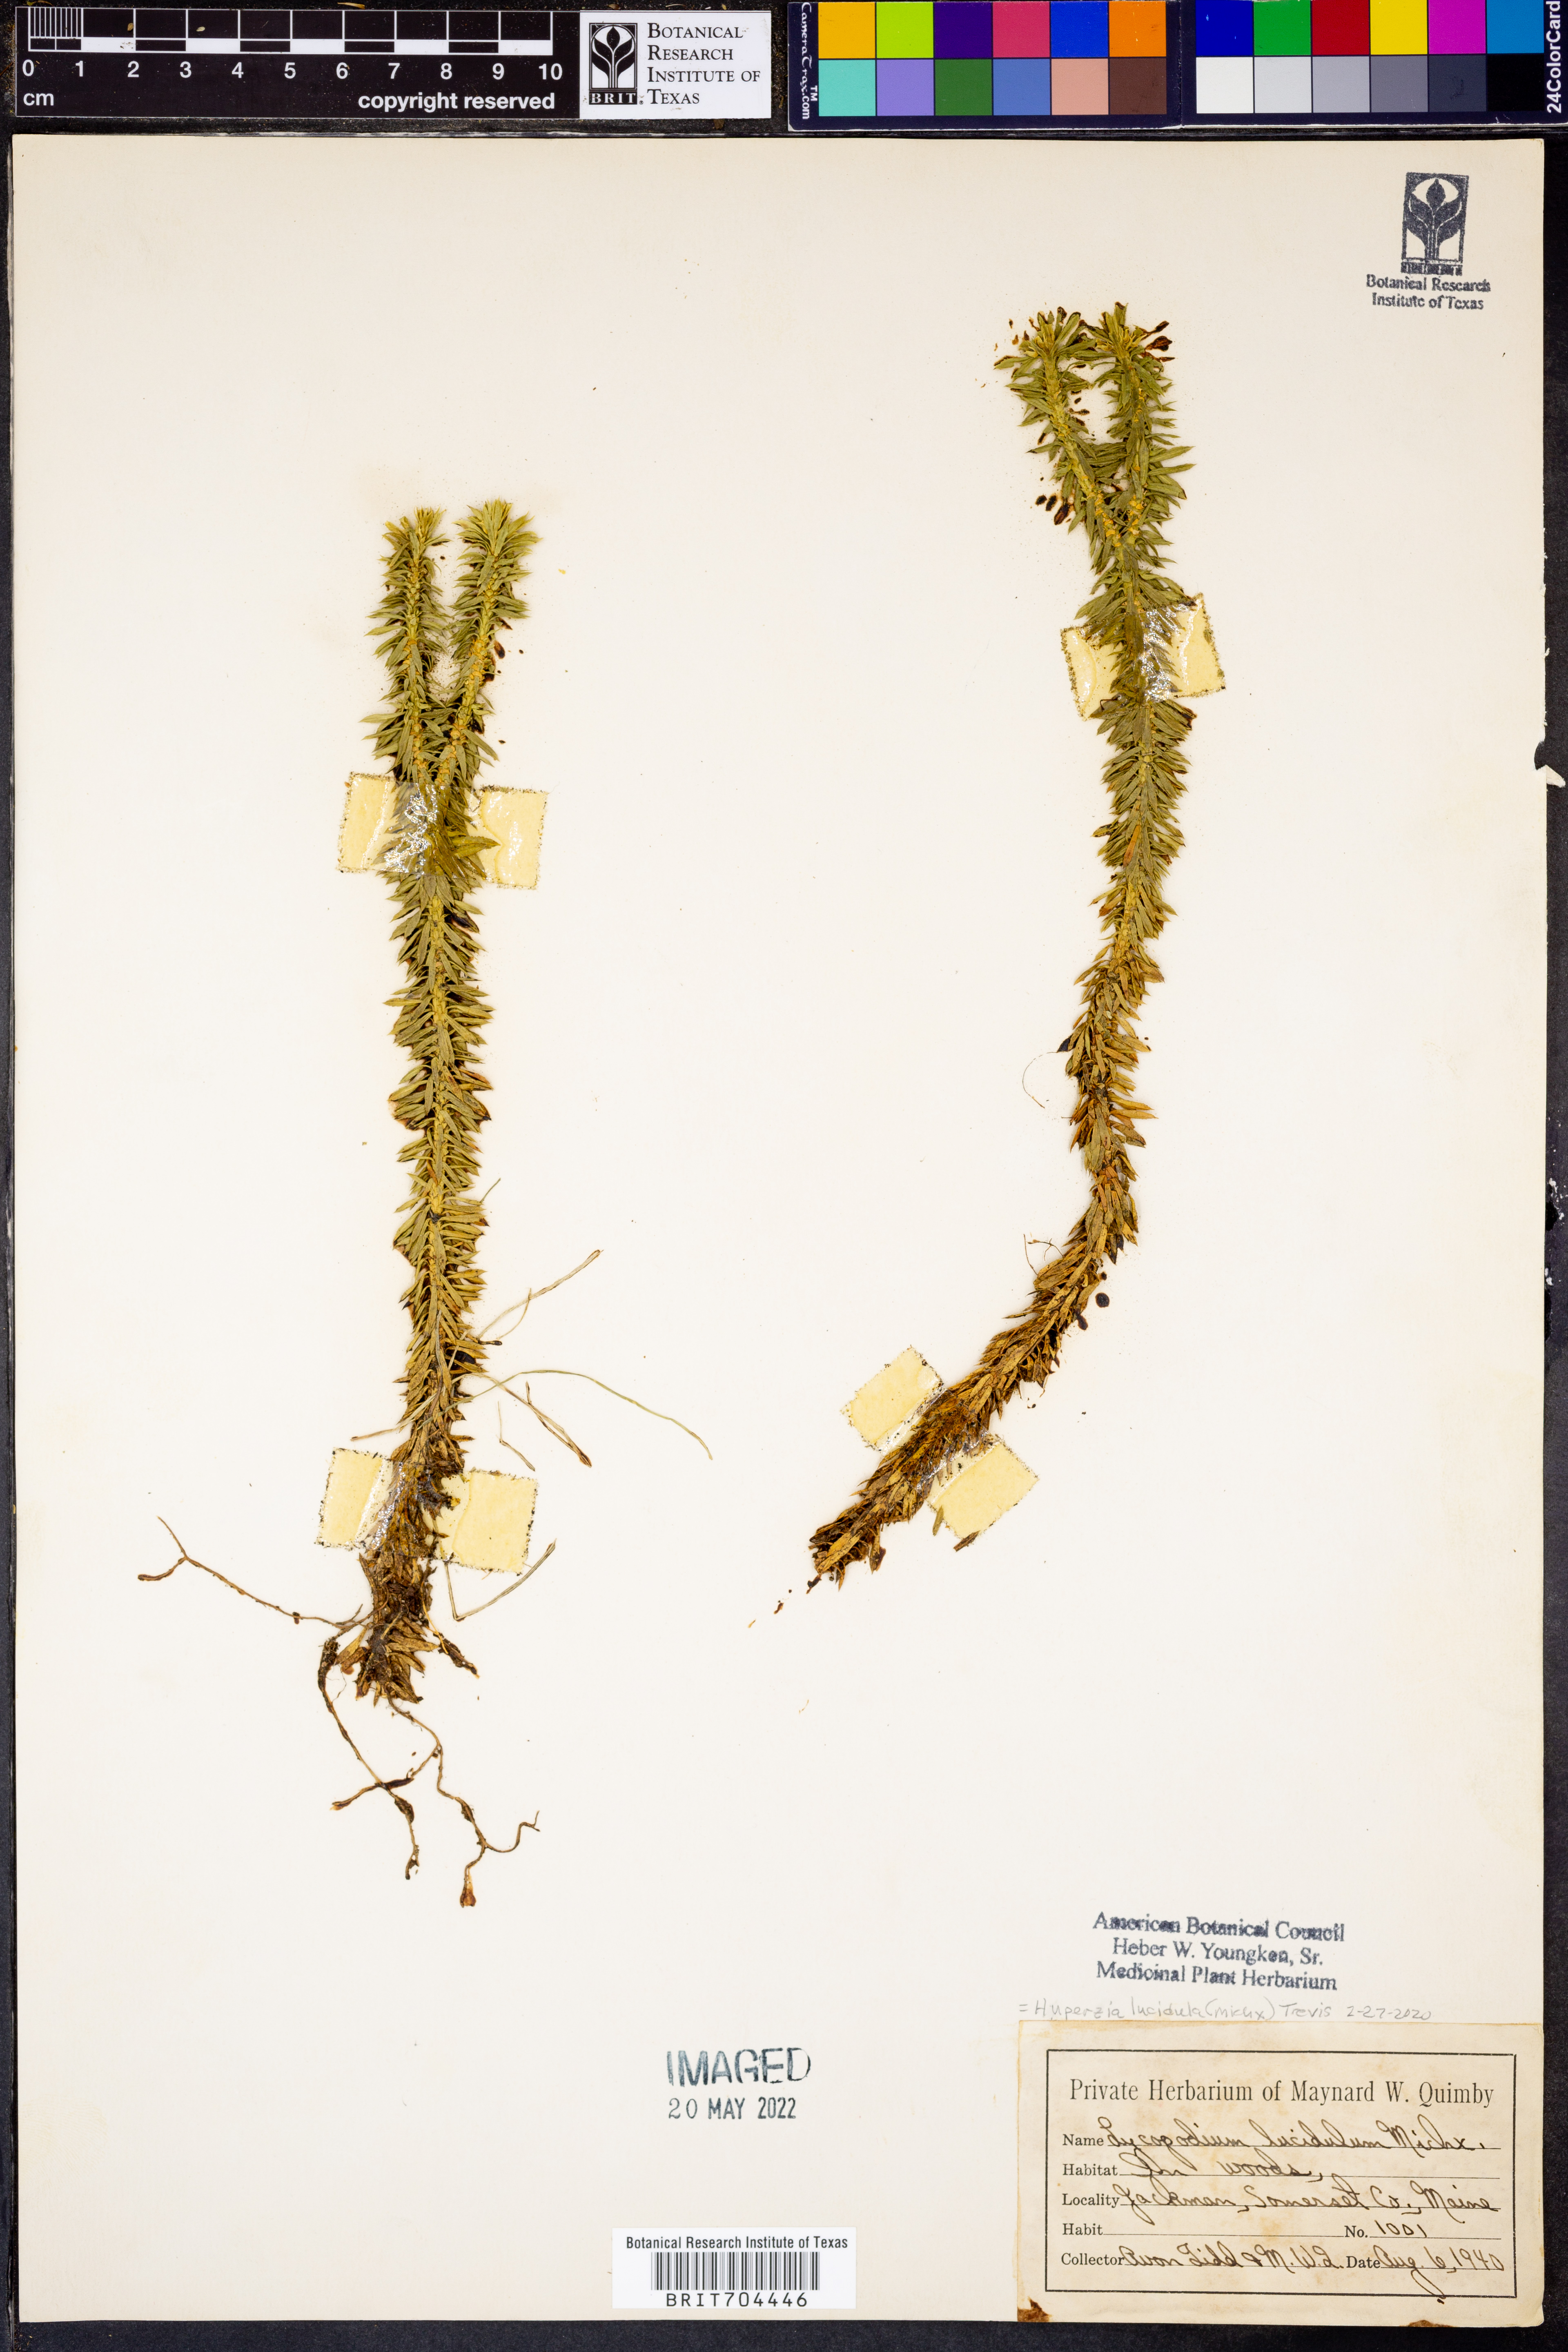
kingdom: Plantae
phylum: Tracheophyta
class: Lycopodiopsida
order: Lycopodiales
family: Lycopodiaceae
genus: Huperzia
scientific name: Huperzia lucidula
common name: Shining clubmoss
